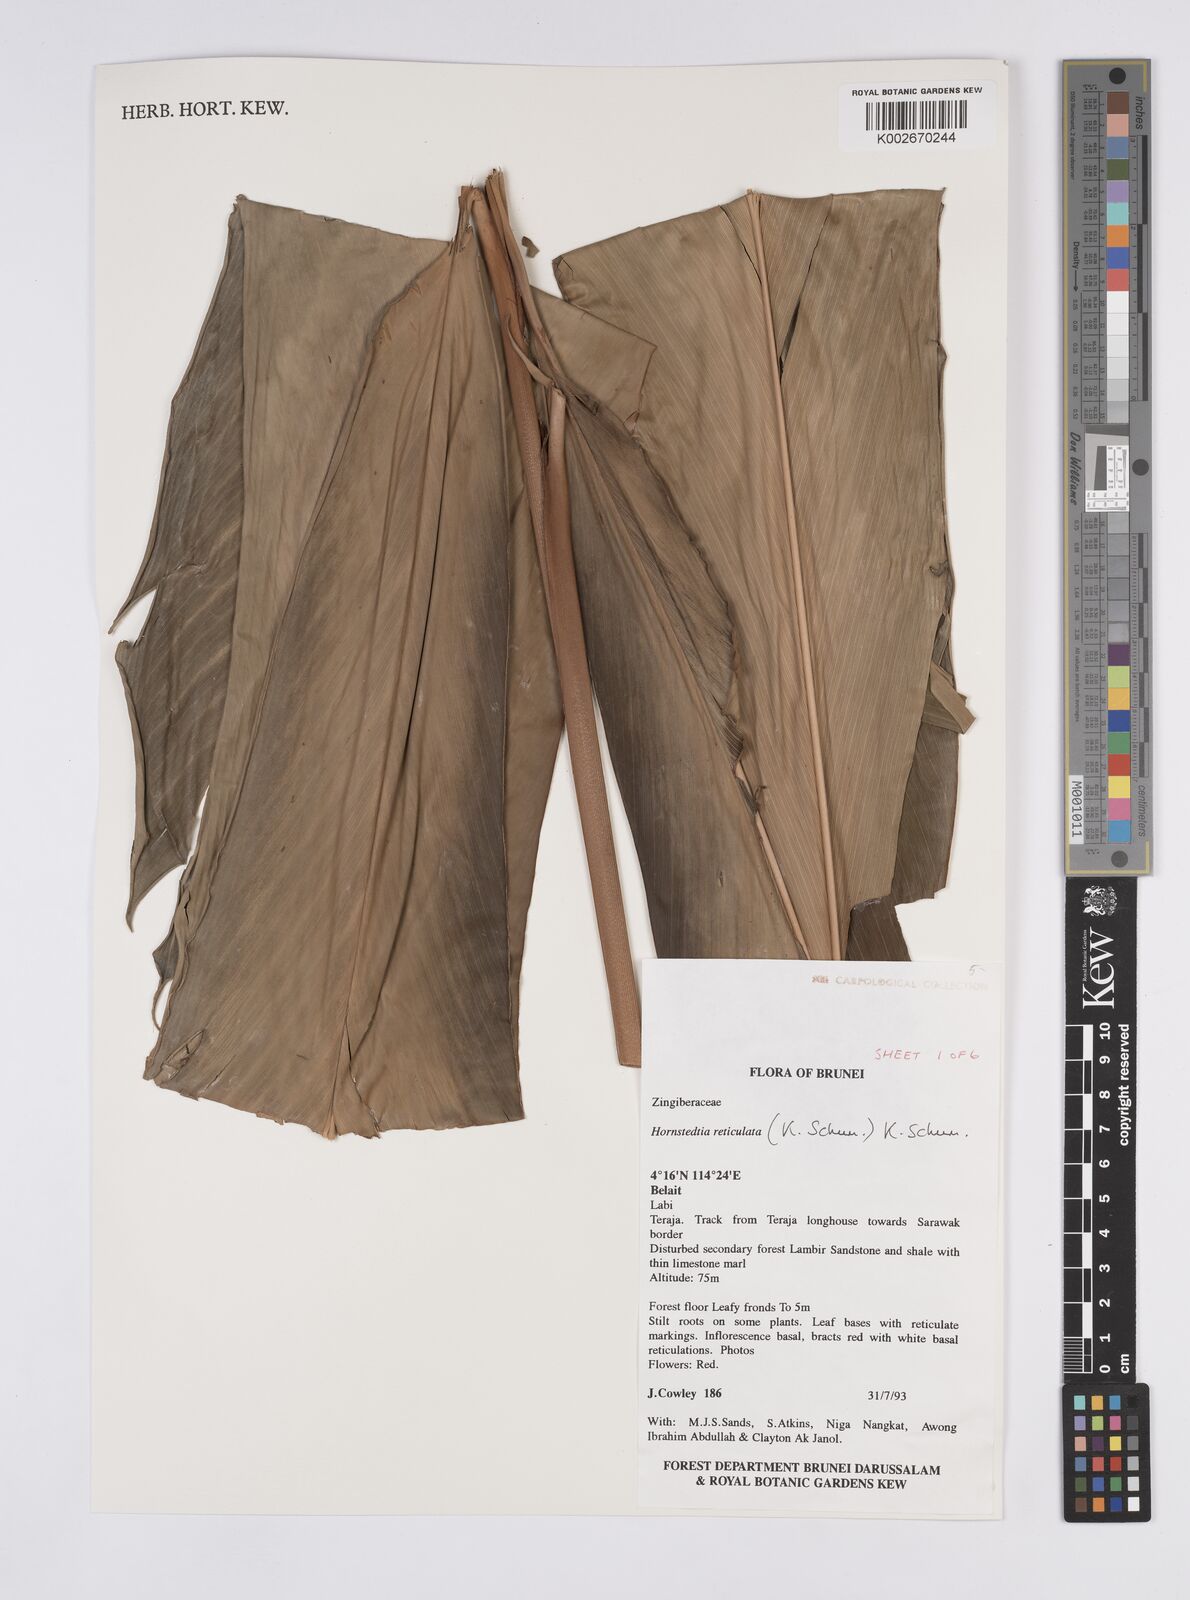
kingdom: Plantae
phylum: Tracheophyta
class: Liliopsida
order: Zingiberales
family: Zingiberaceae
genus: Hornstedtia
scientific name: Hornstedtia reticulata
